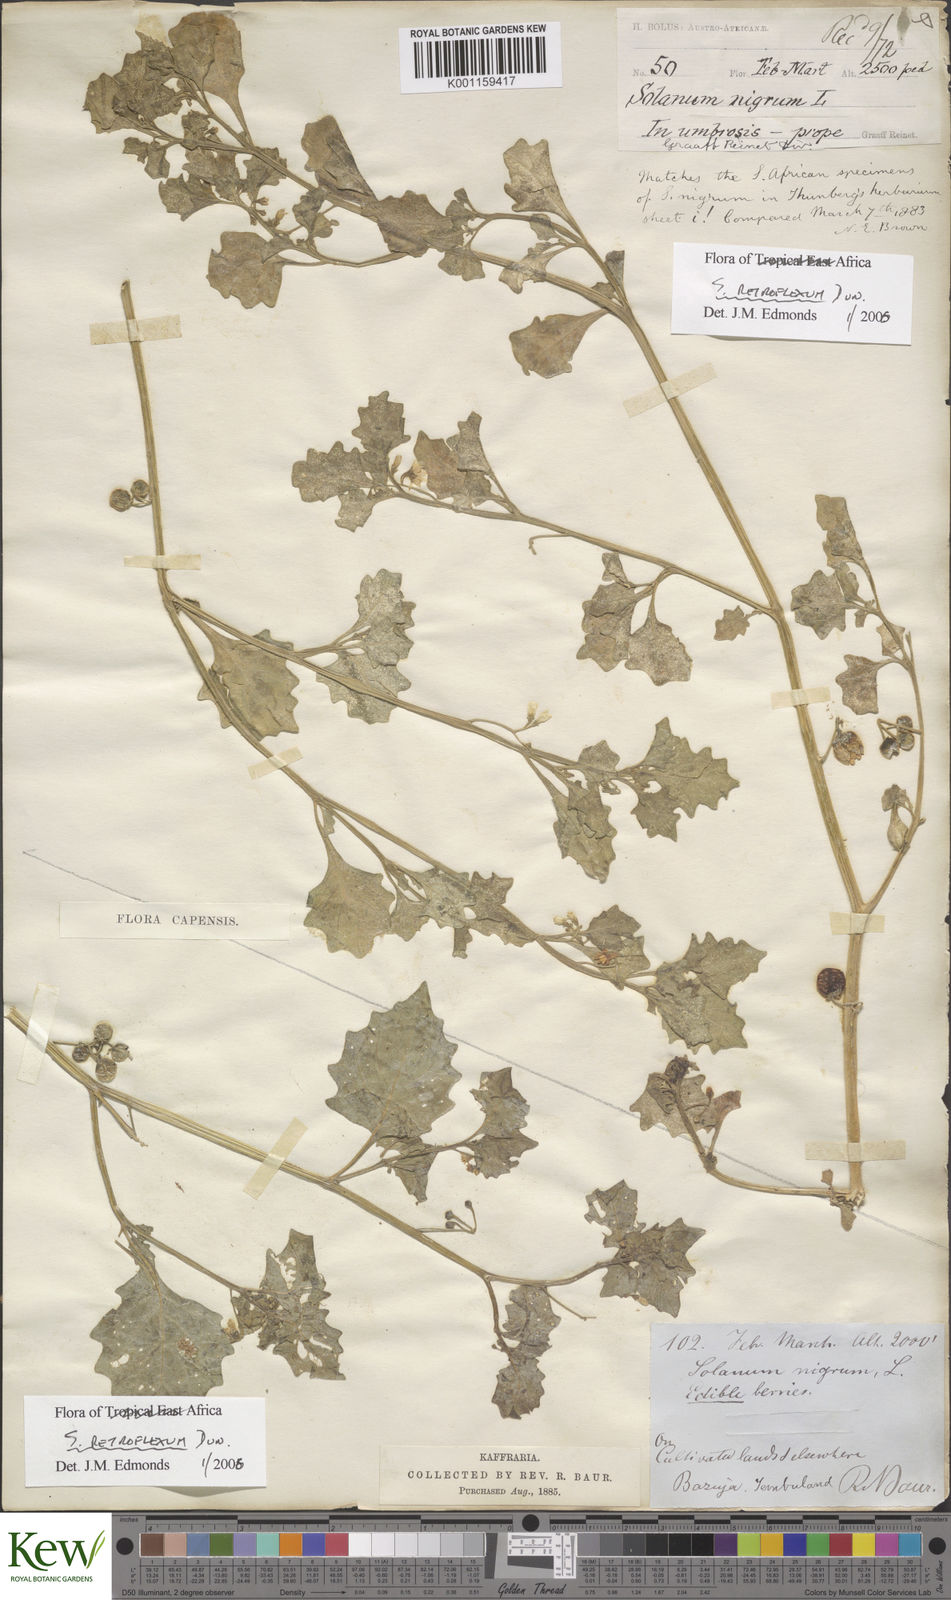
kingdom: Plantae
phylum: Tracheophyta
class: Magnoliopsida
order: Solanales
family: Solanaceae
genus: Solanum
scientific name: Solanum retroflexum
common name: Wonderberry
